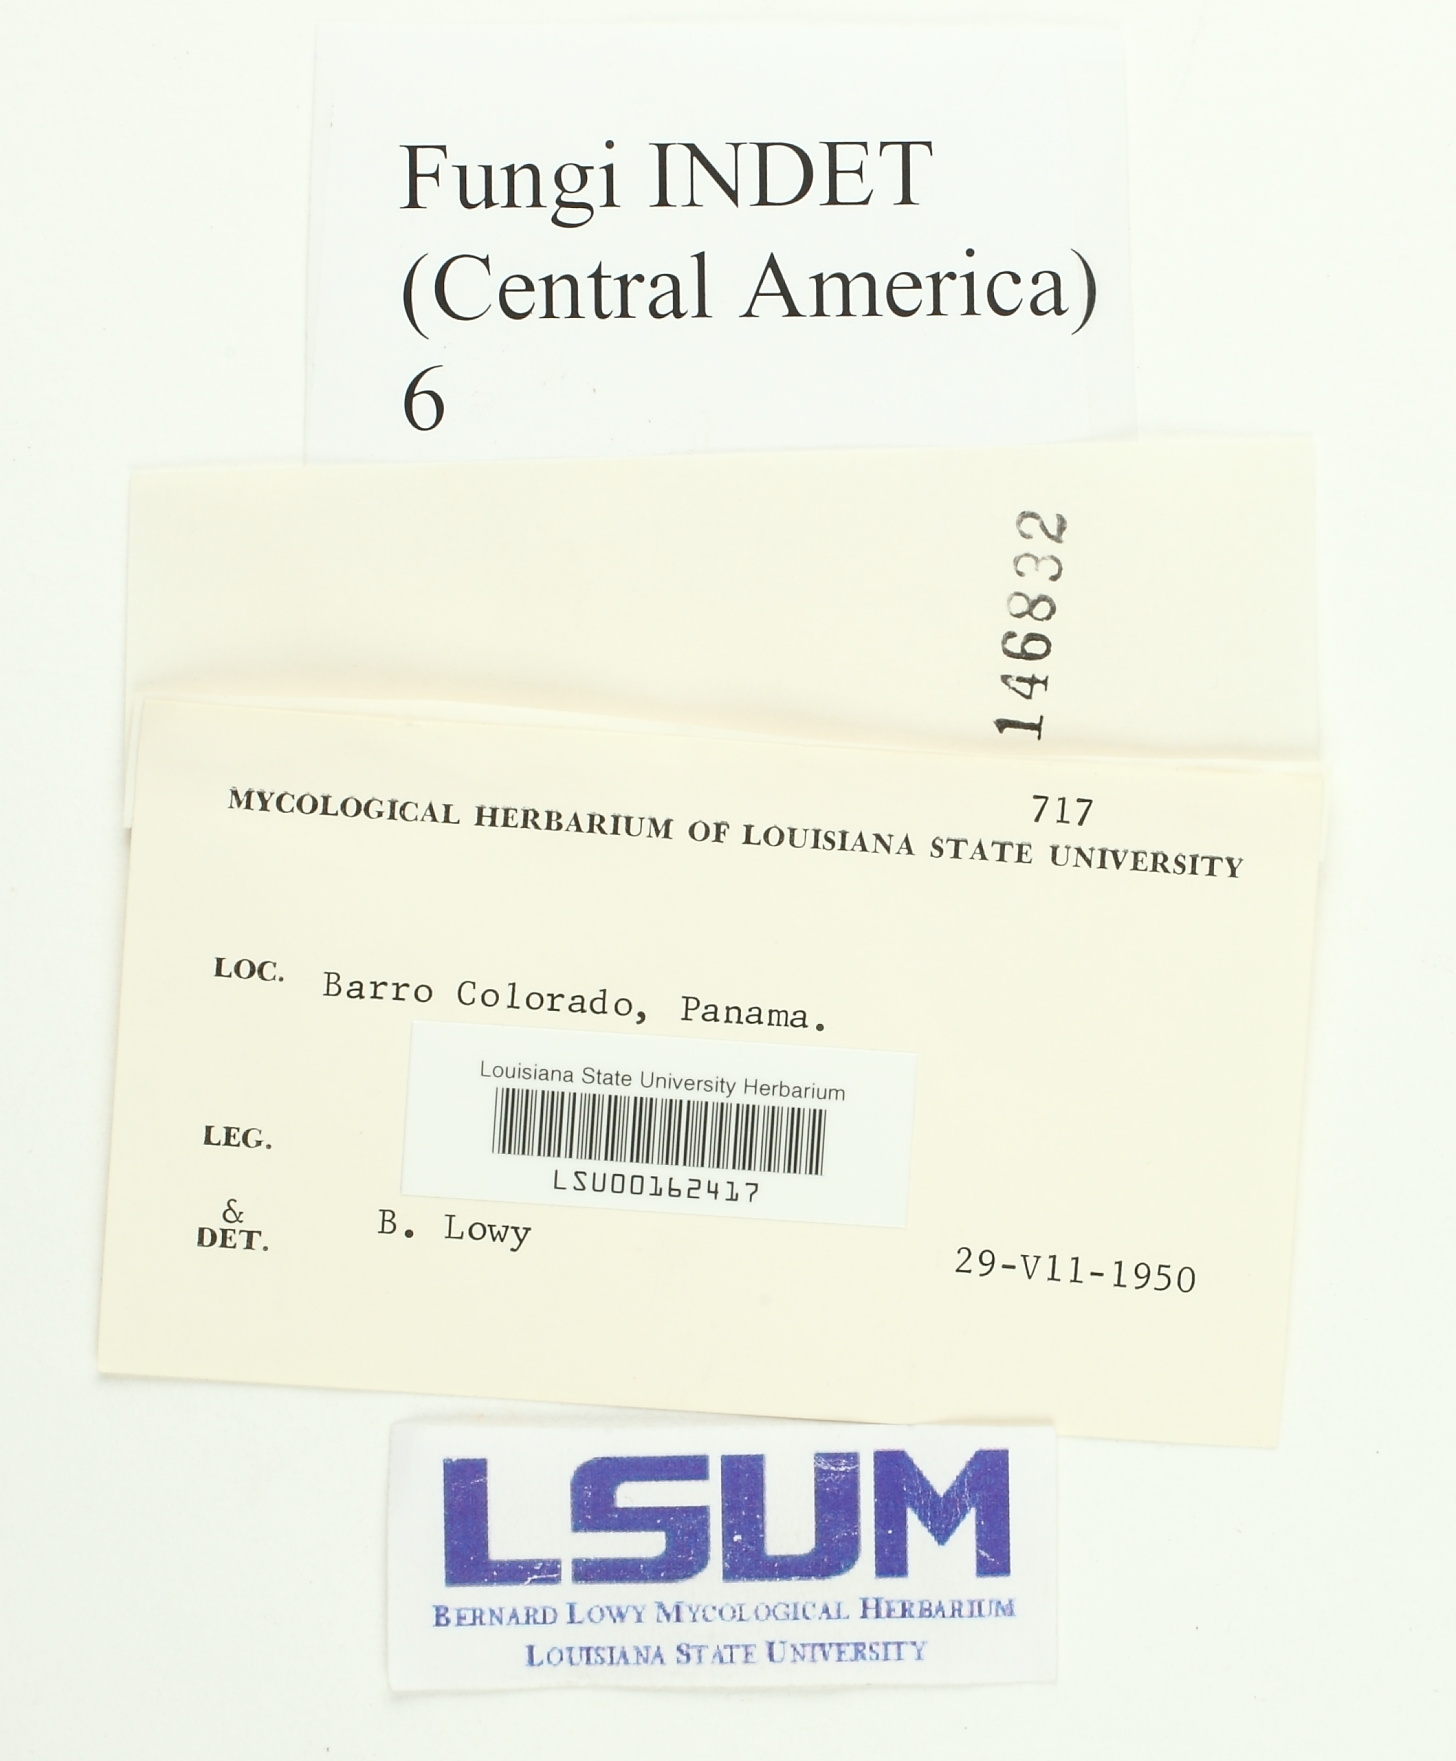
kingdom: Fungi
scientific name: Fungi
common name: Fungi
